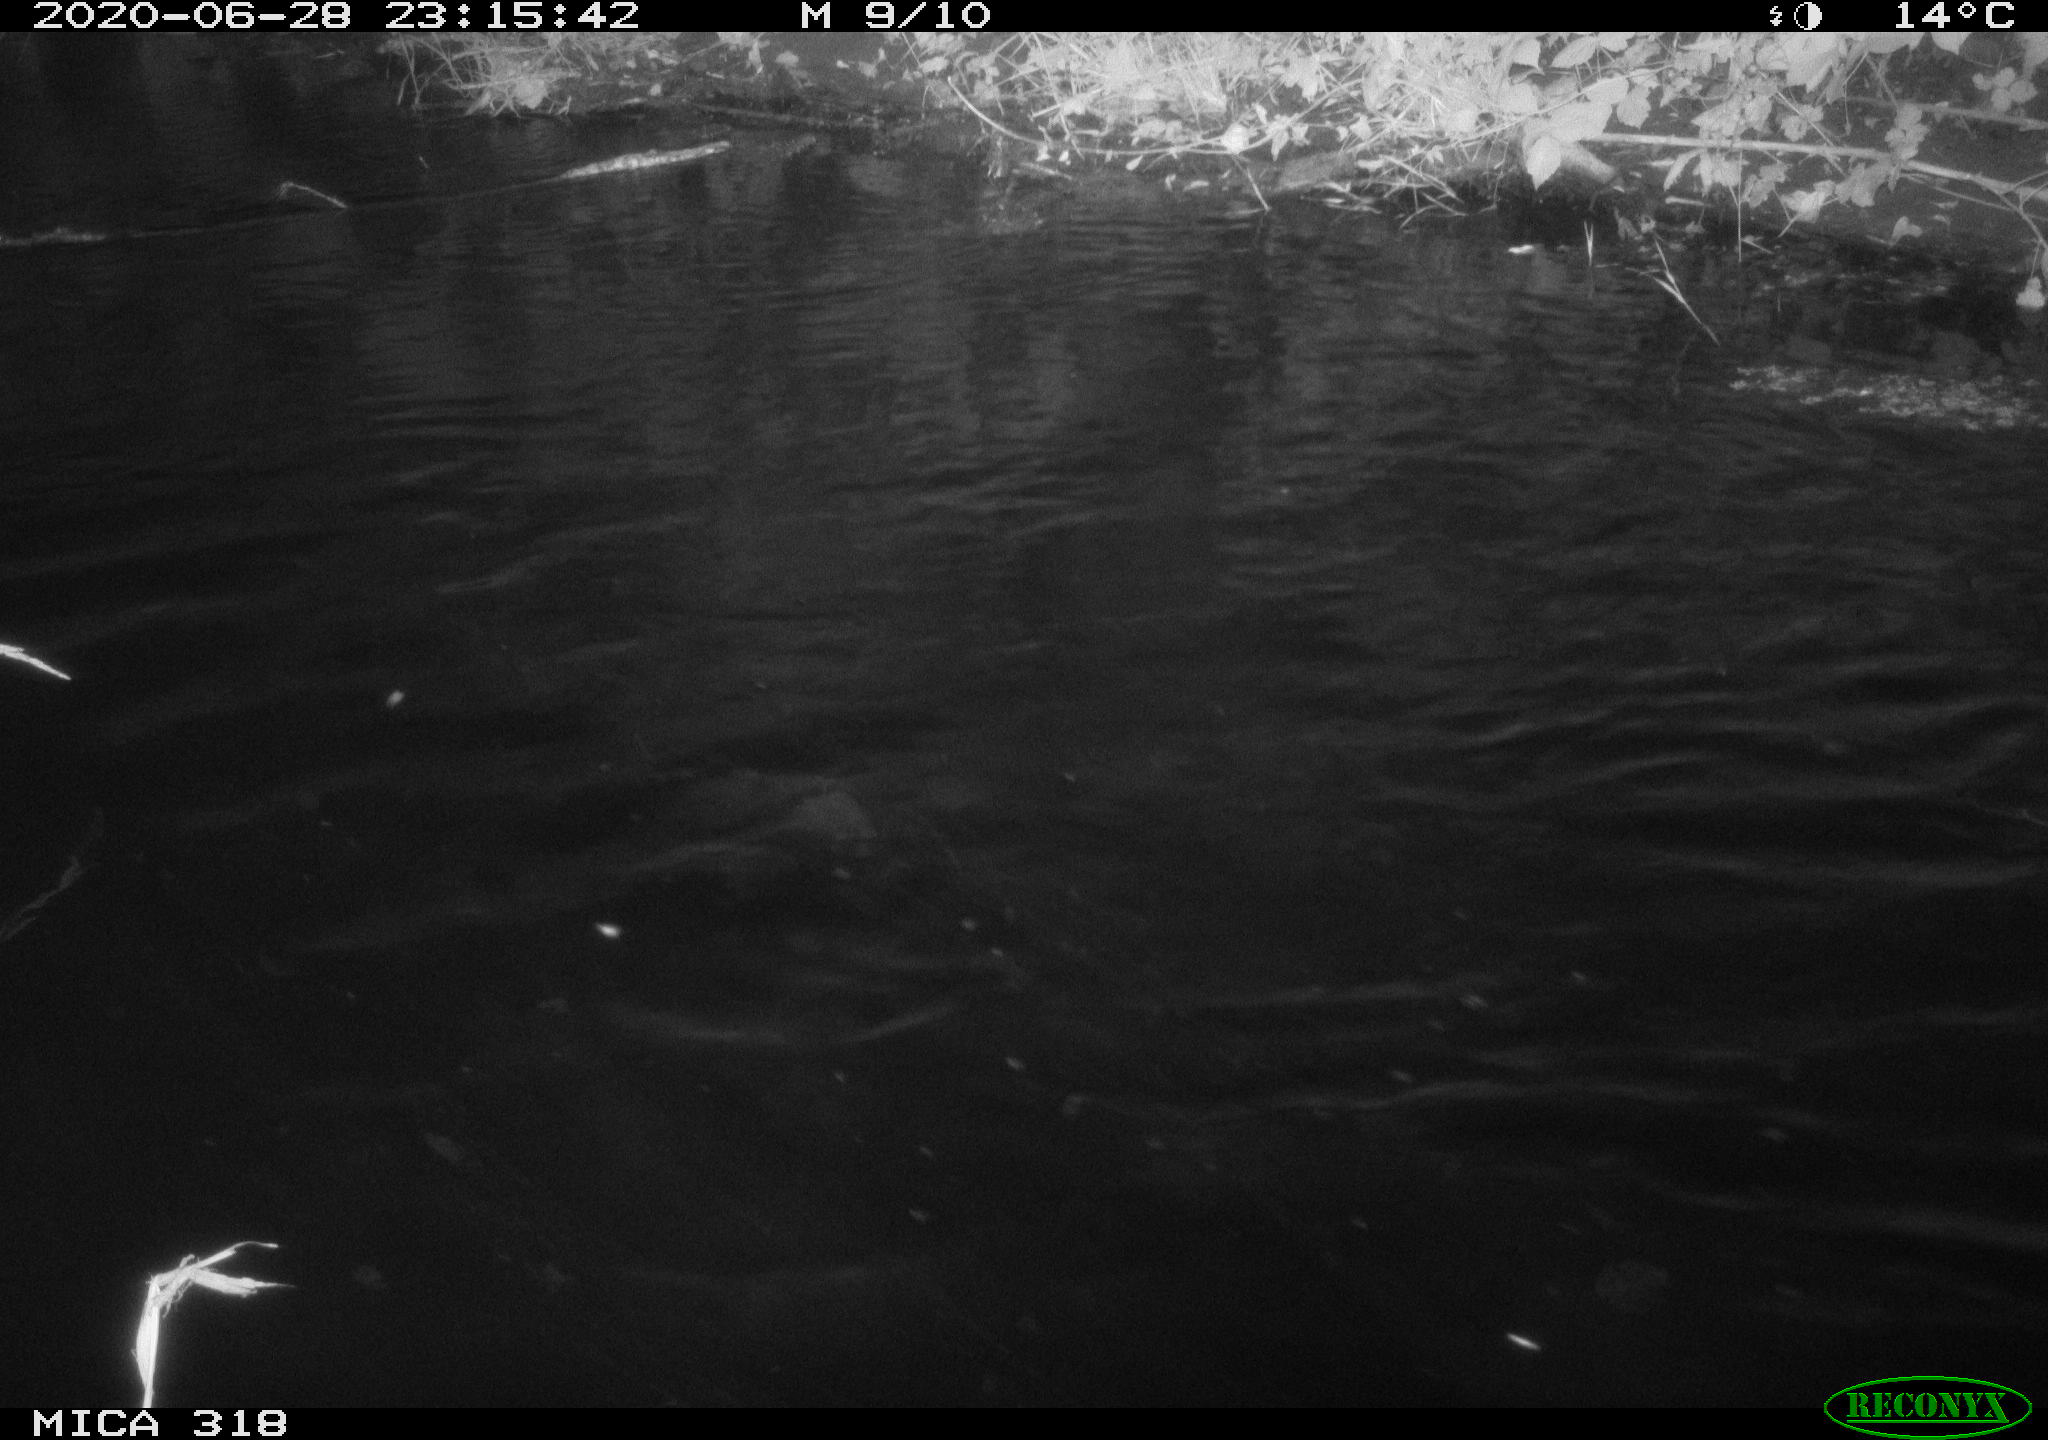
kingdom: Animalia
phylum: Chordata
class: Aves
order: Anseriformes
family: Anatidae
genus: Anas
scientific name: Anas platyrhynchos
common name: Mallard
